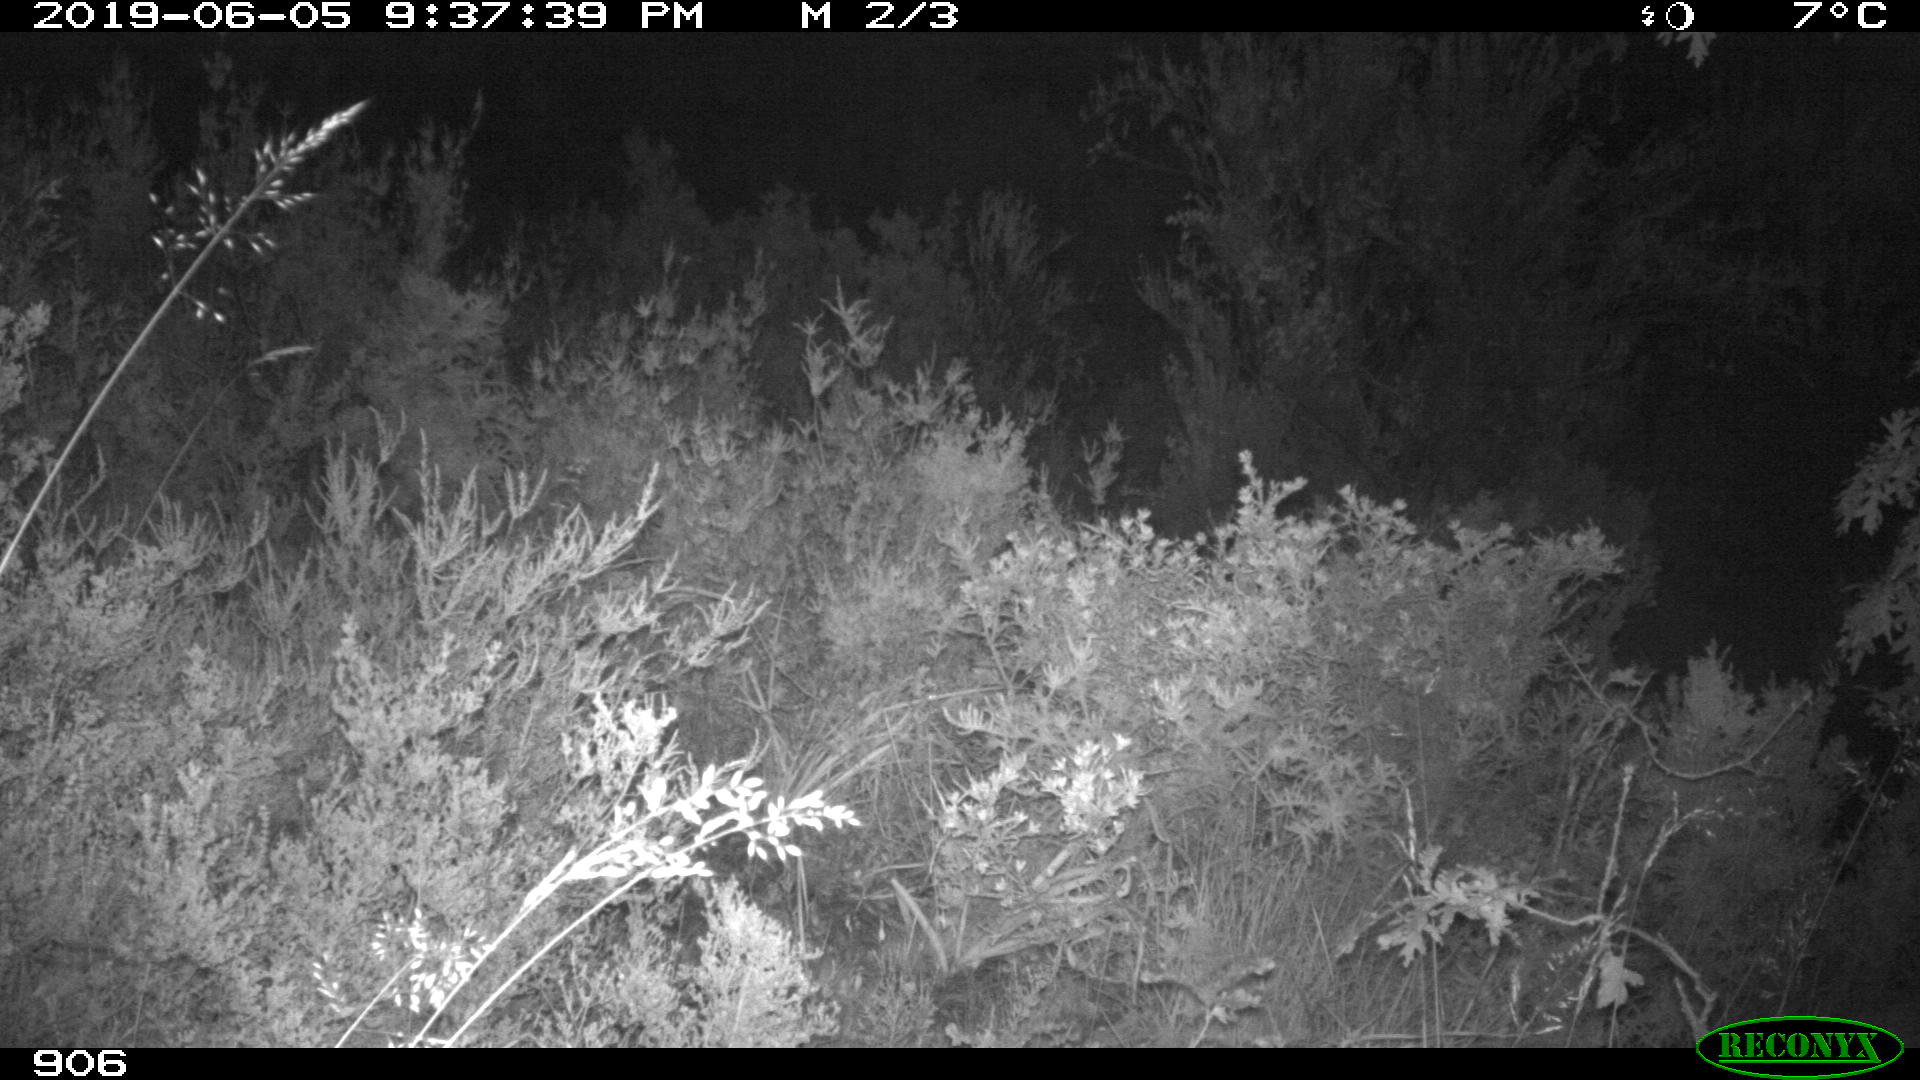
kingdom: Animalia
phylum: Chordata
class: Mammalia
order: Artiodactyla
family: Cervidae
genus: Capreolus
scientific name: Capreolus capreolus
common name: Western roe deer
